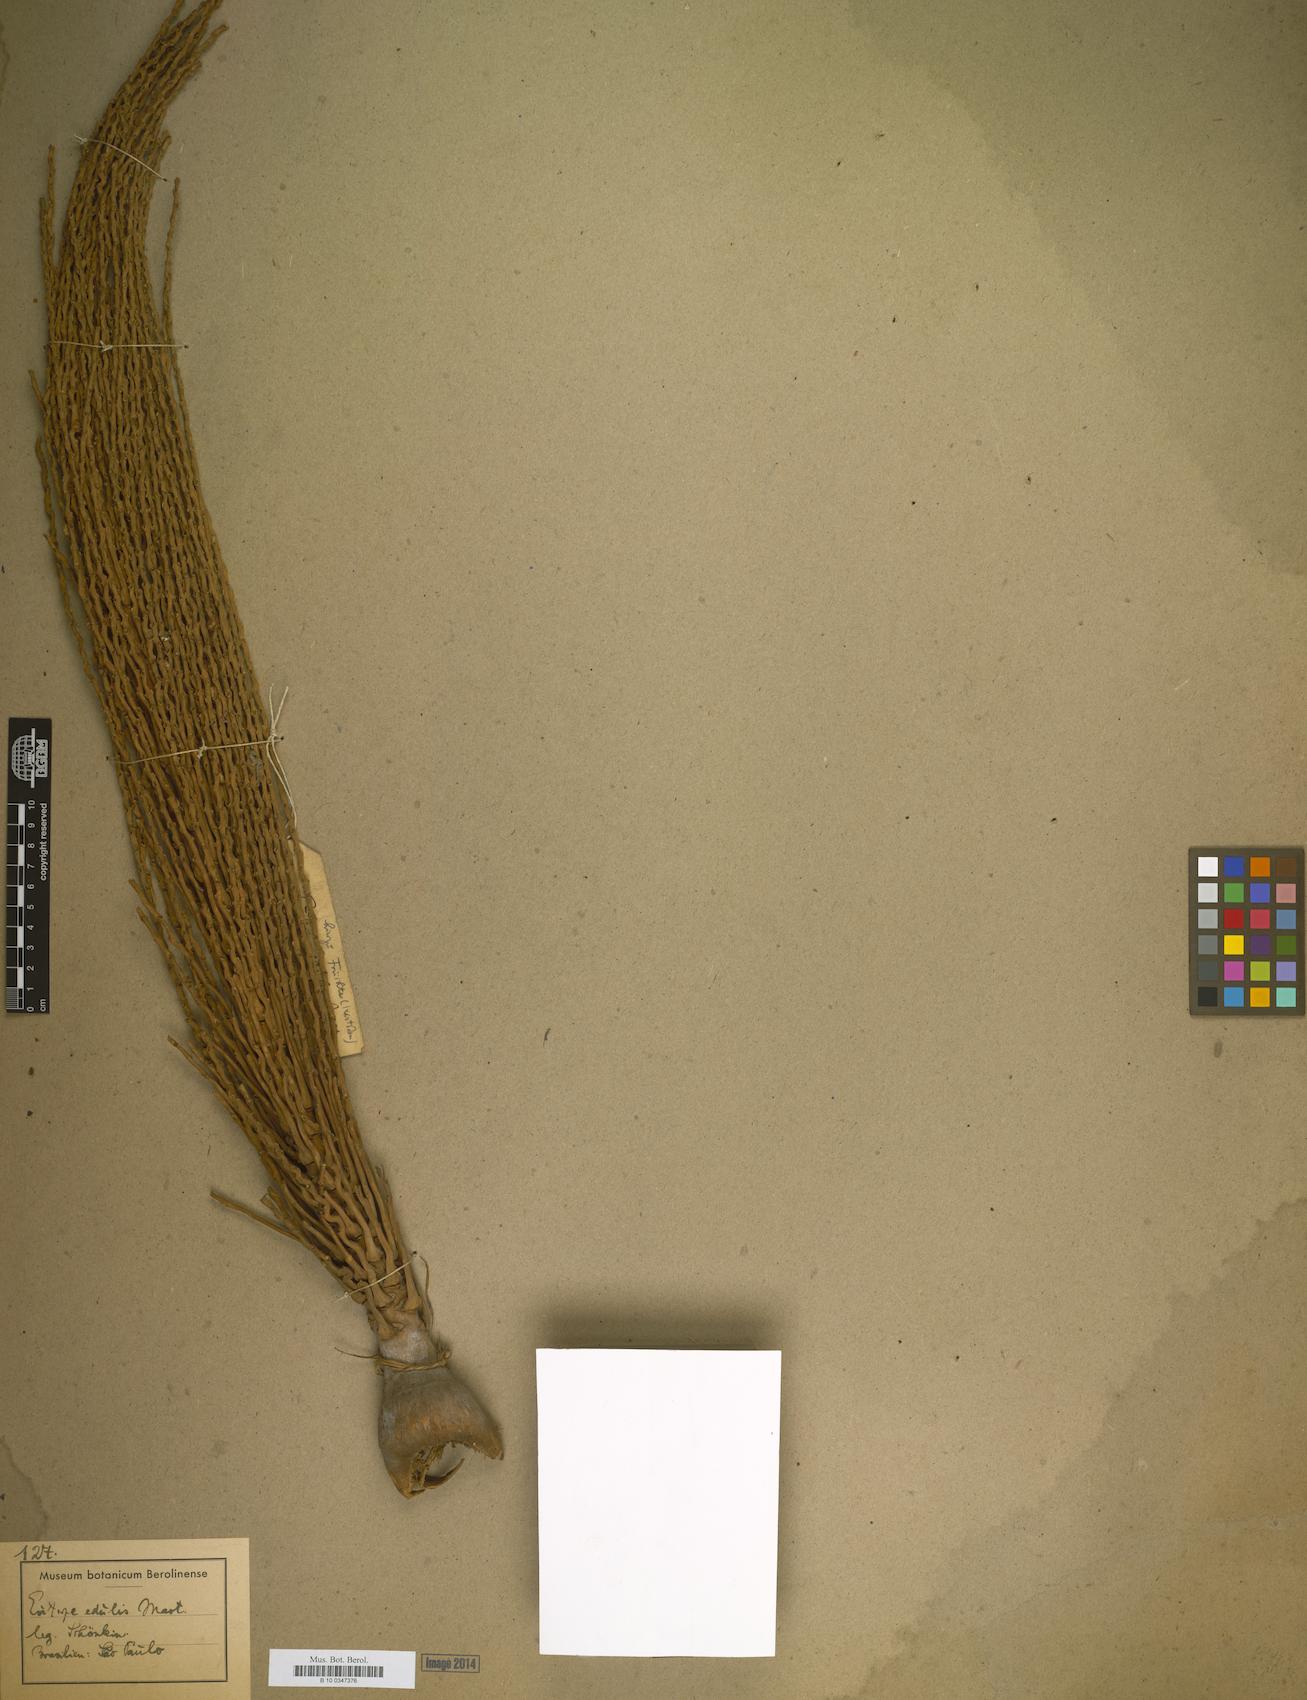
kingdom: Plantae
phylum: Tracheophyta
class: Liliopsida
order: Arecales
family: Arecaceae
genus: Euterpe
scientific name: Euterpe edulis
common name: Assai palm
